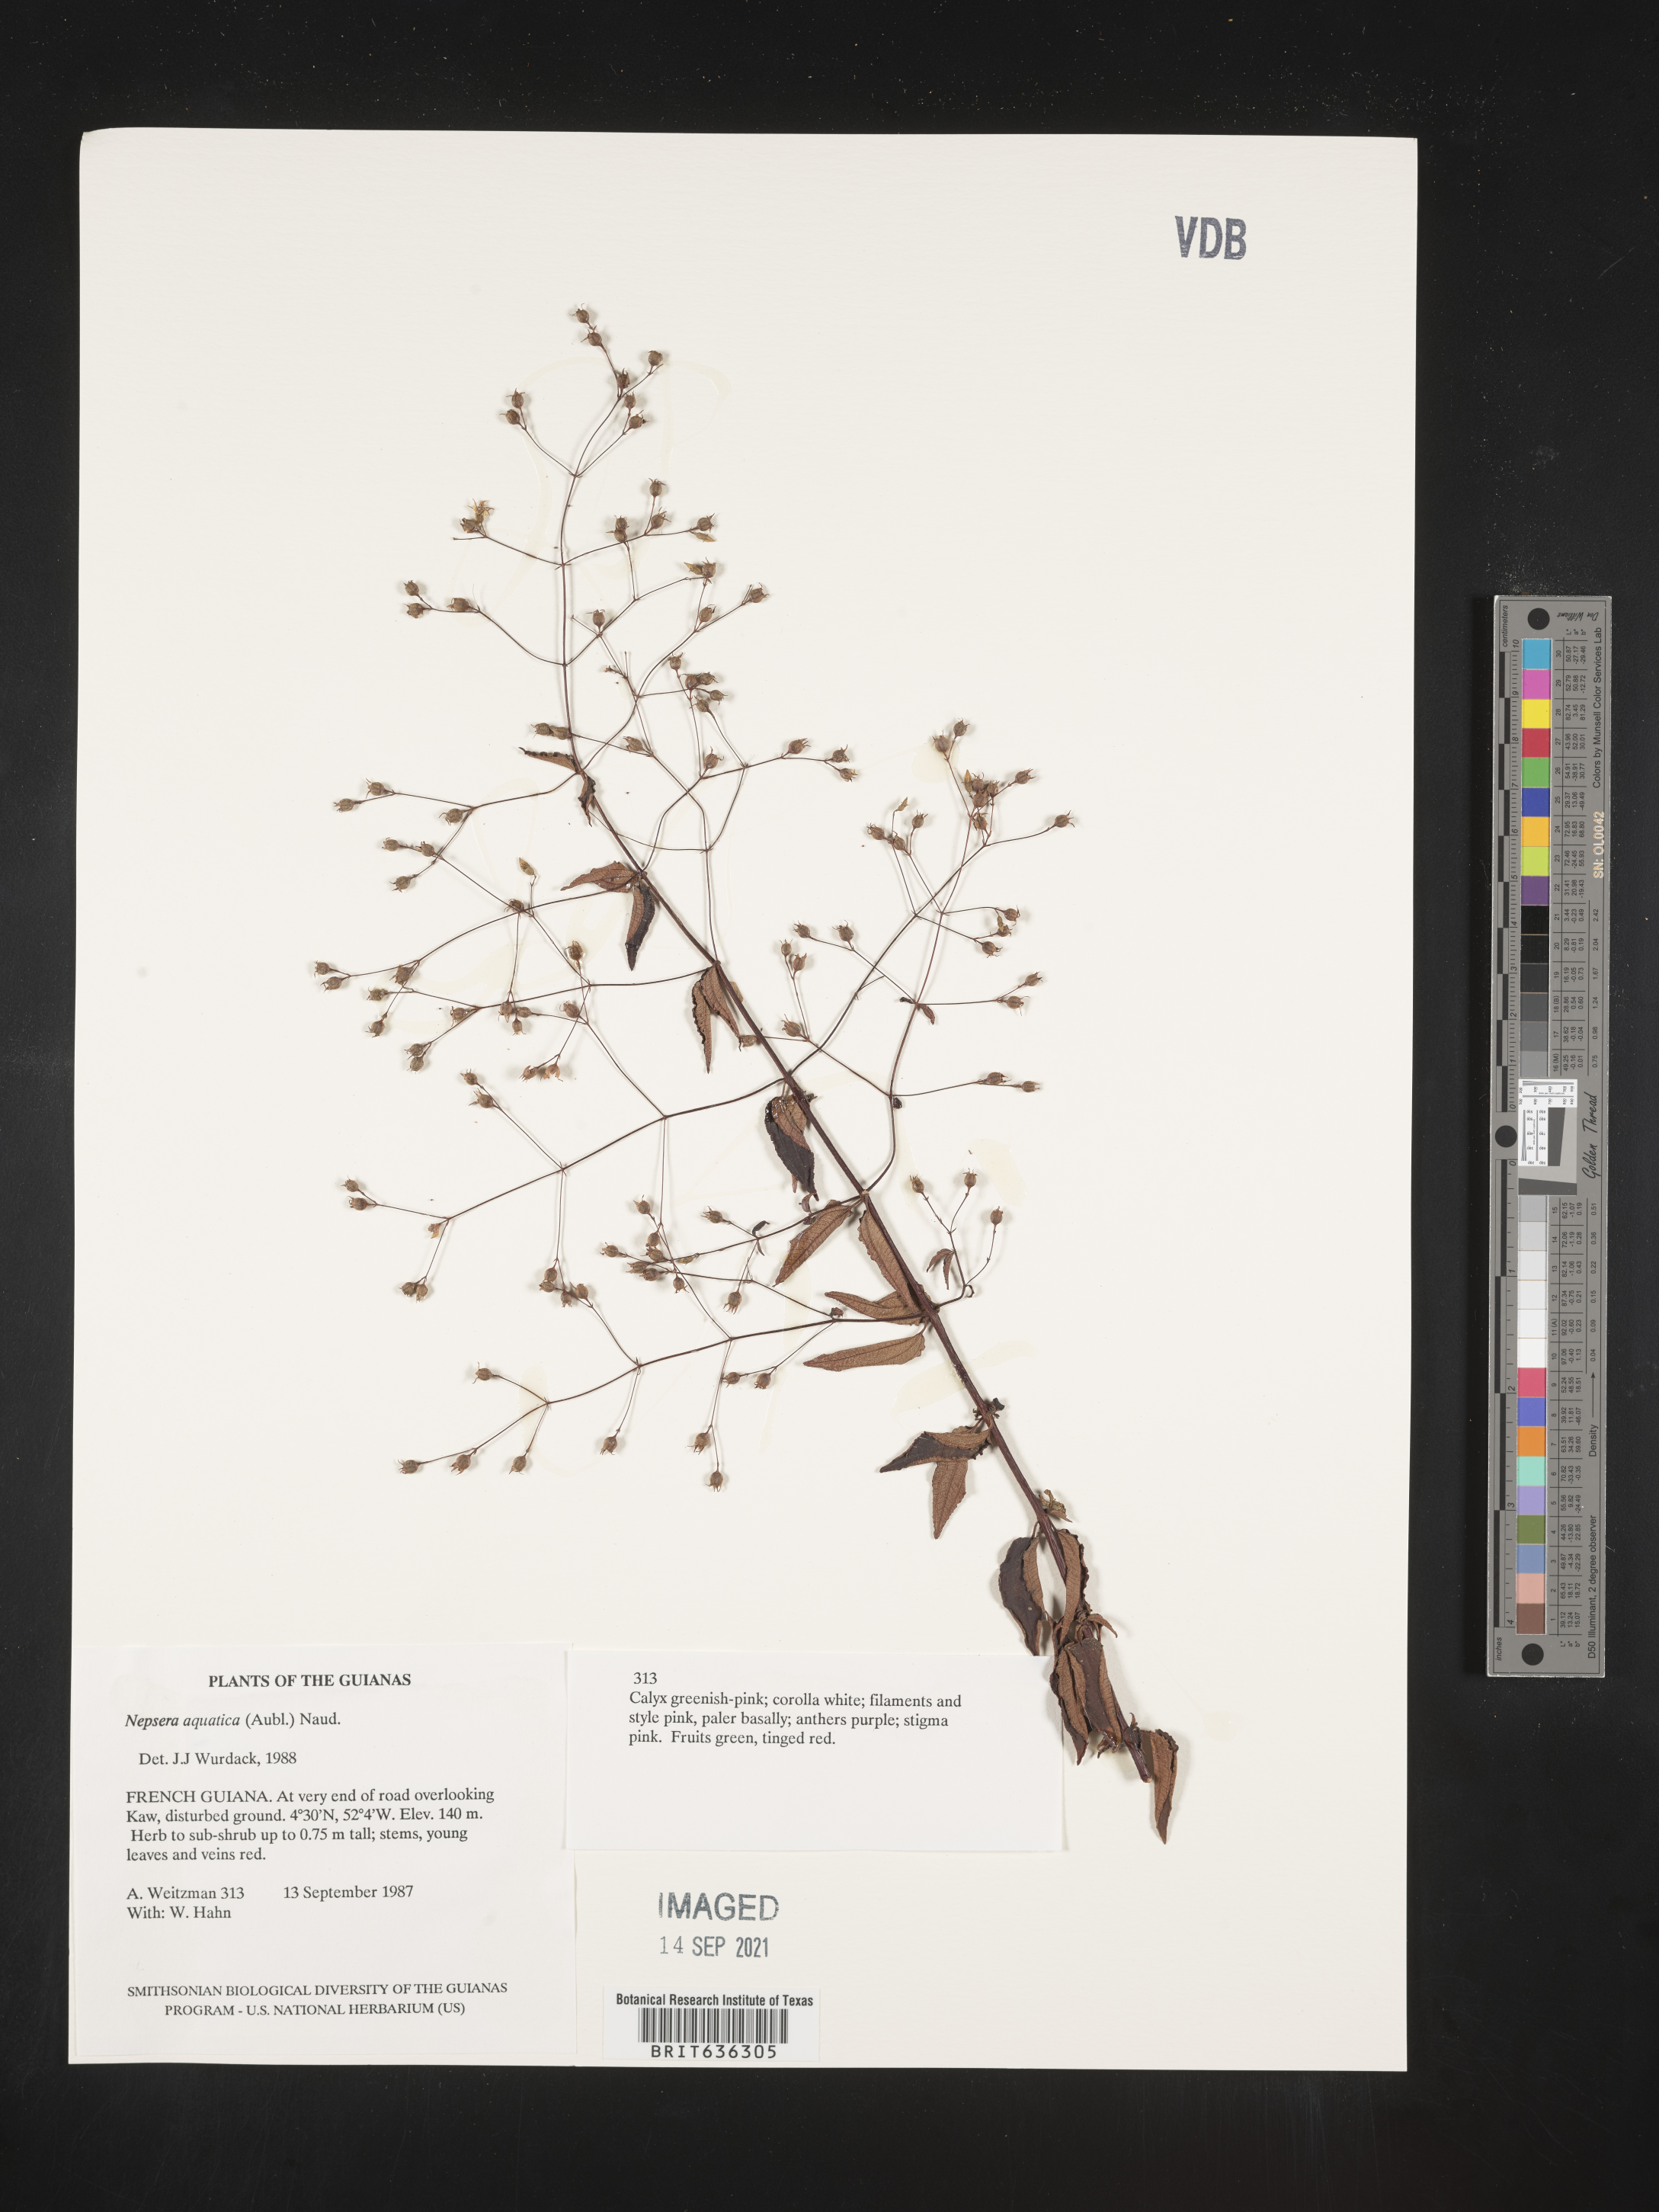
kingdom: Plantae
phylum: Tracheophyta
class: Magnoliopsida
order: Myrtales
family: Melastomataceae
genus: Nepsera
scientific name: Nepsera
